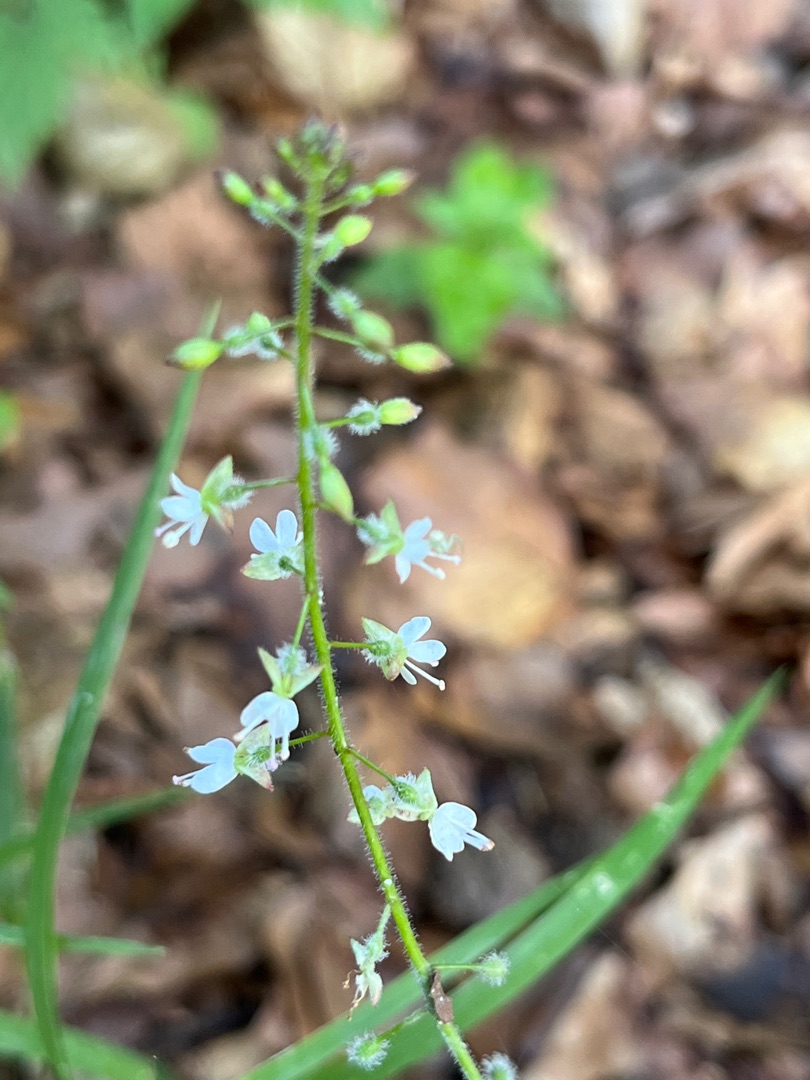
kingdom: Plantae
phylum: Tracheophyta
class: Magnoliopsida
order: Myrtales
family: Onagraceae
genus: Circaea
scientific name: Circaea lutetiana
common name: Dunet steffensurt
